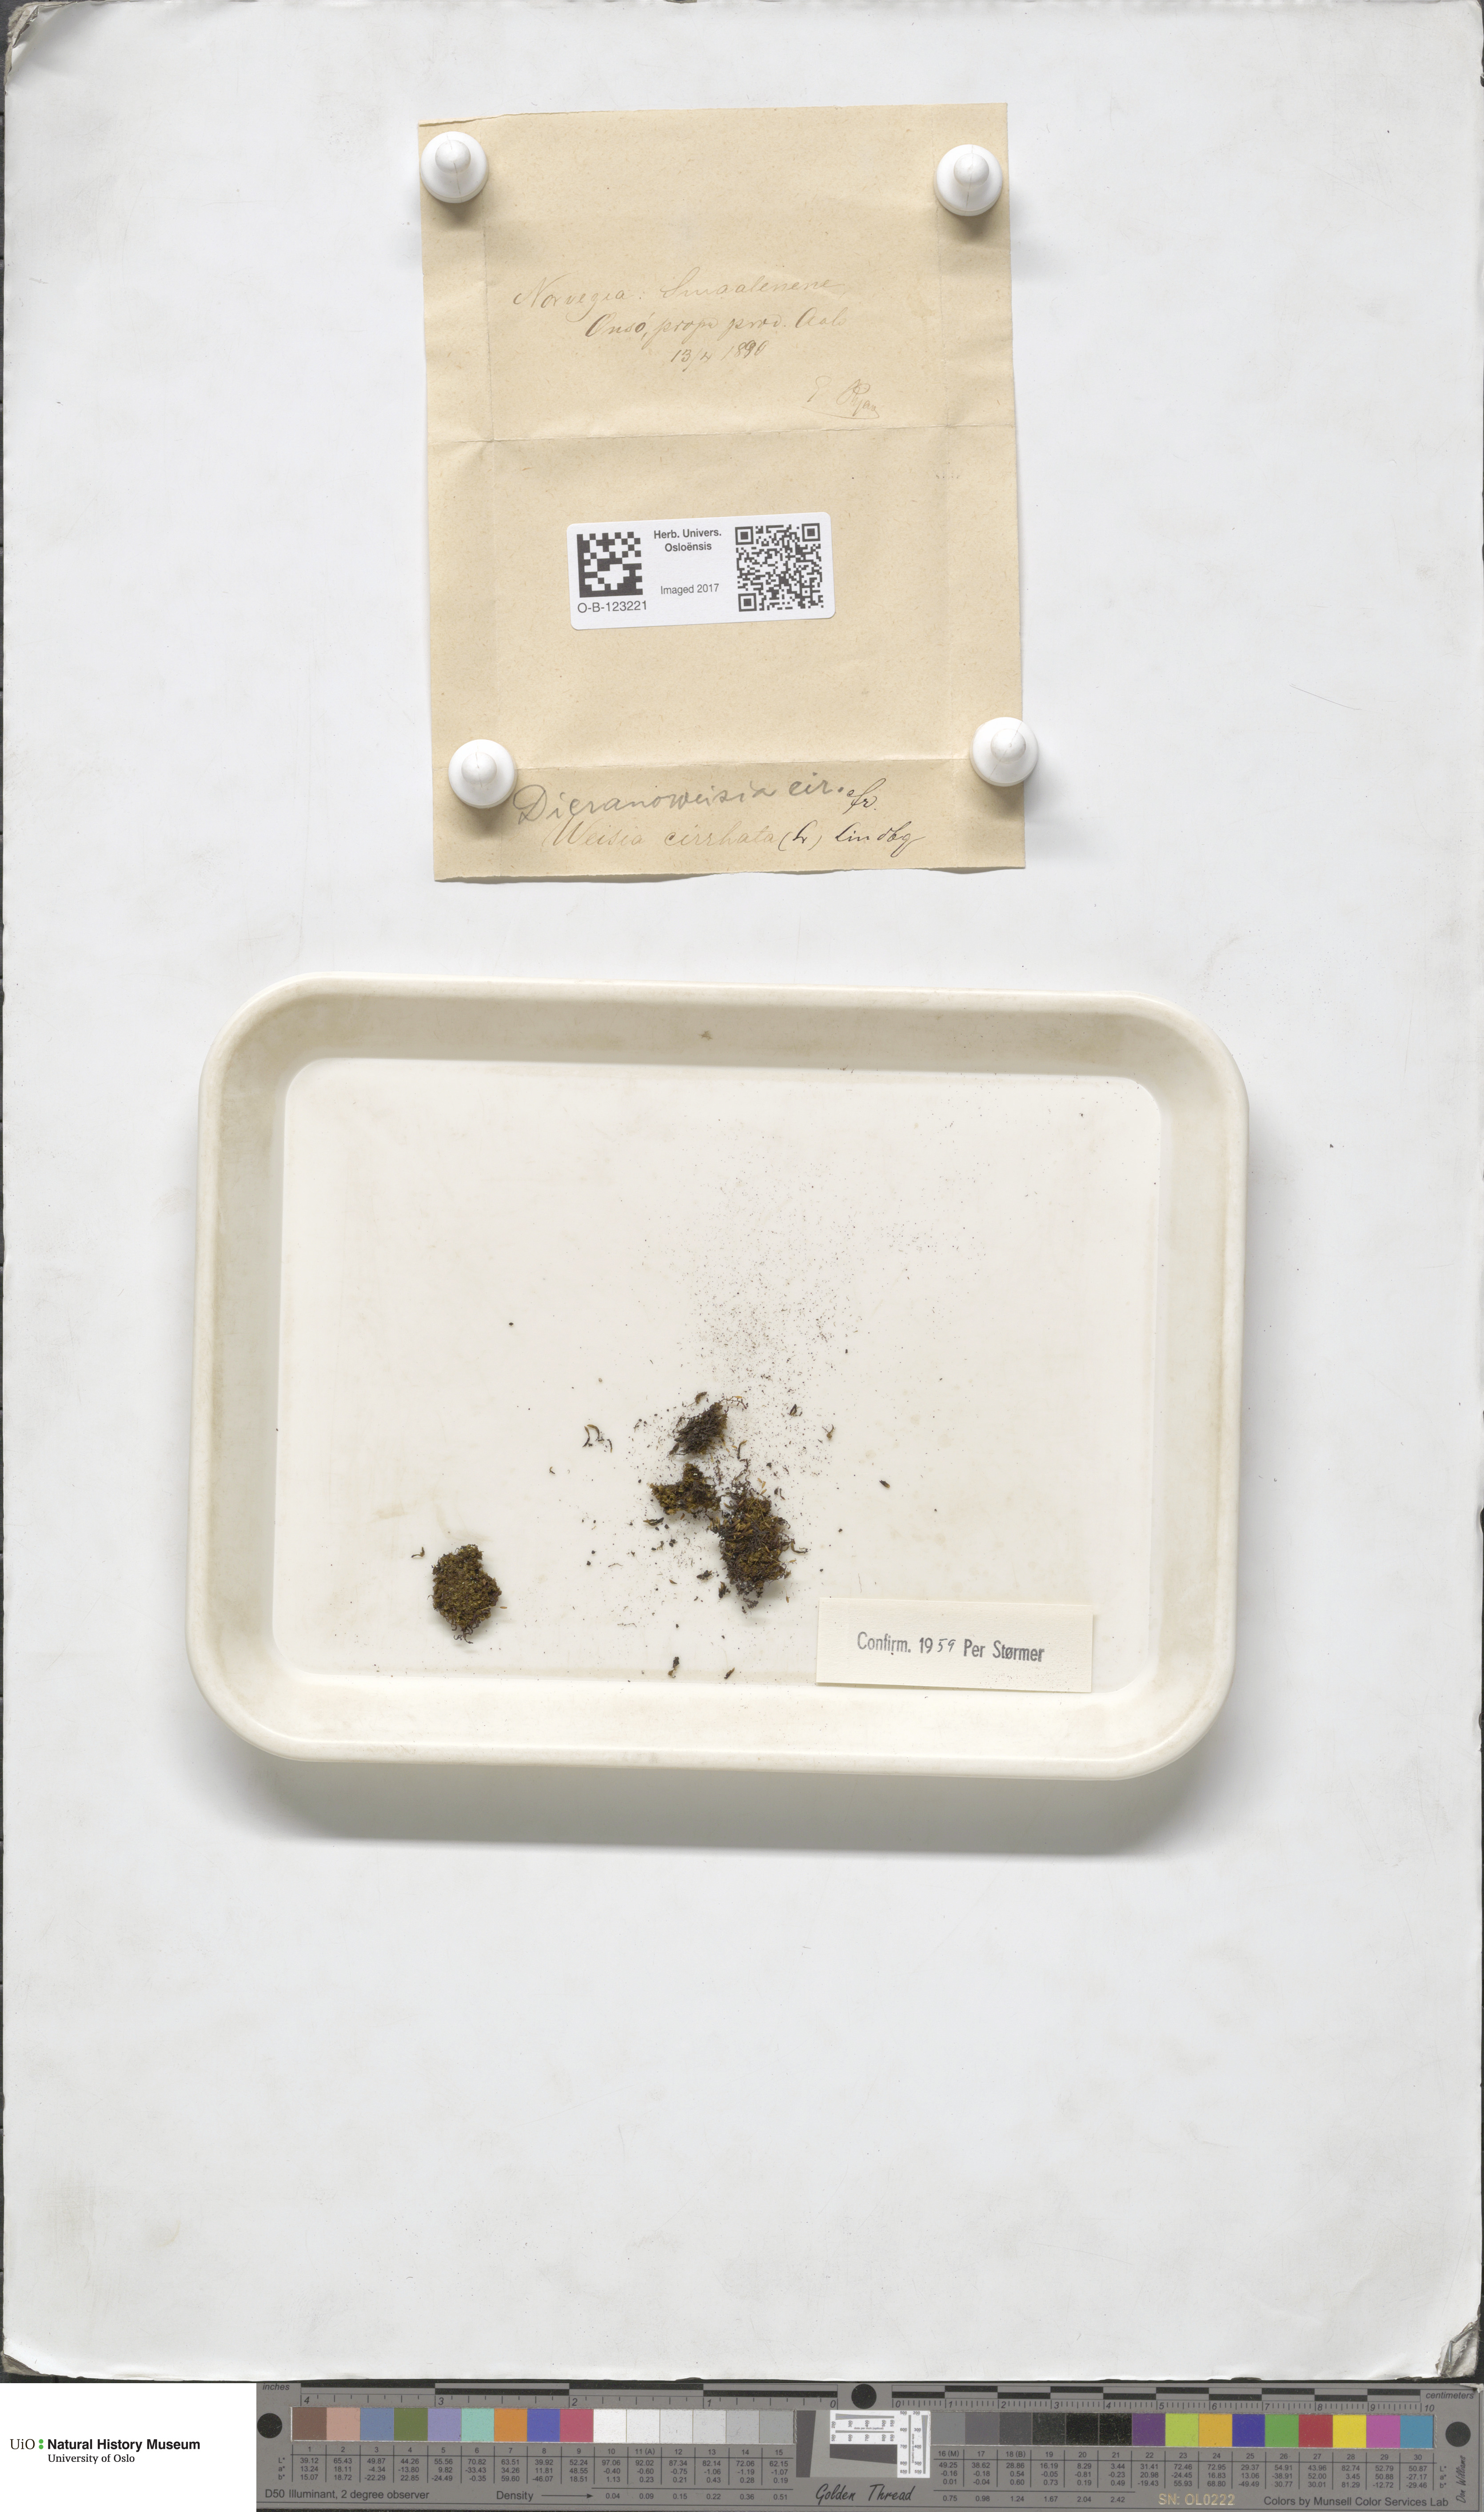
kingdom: Plantae
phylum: Bryophyta
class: Bryopsida
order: Dicranales
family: Rhabdoweisiaceae
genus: Dicranoweisia
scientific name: Dicranoweisia cirrata
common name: Common pincushion
